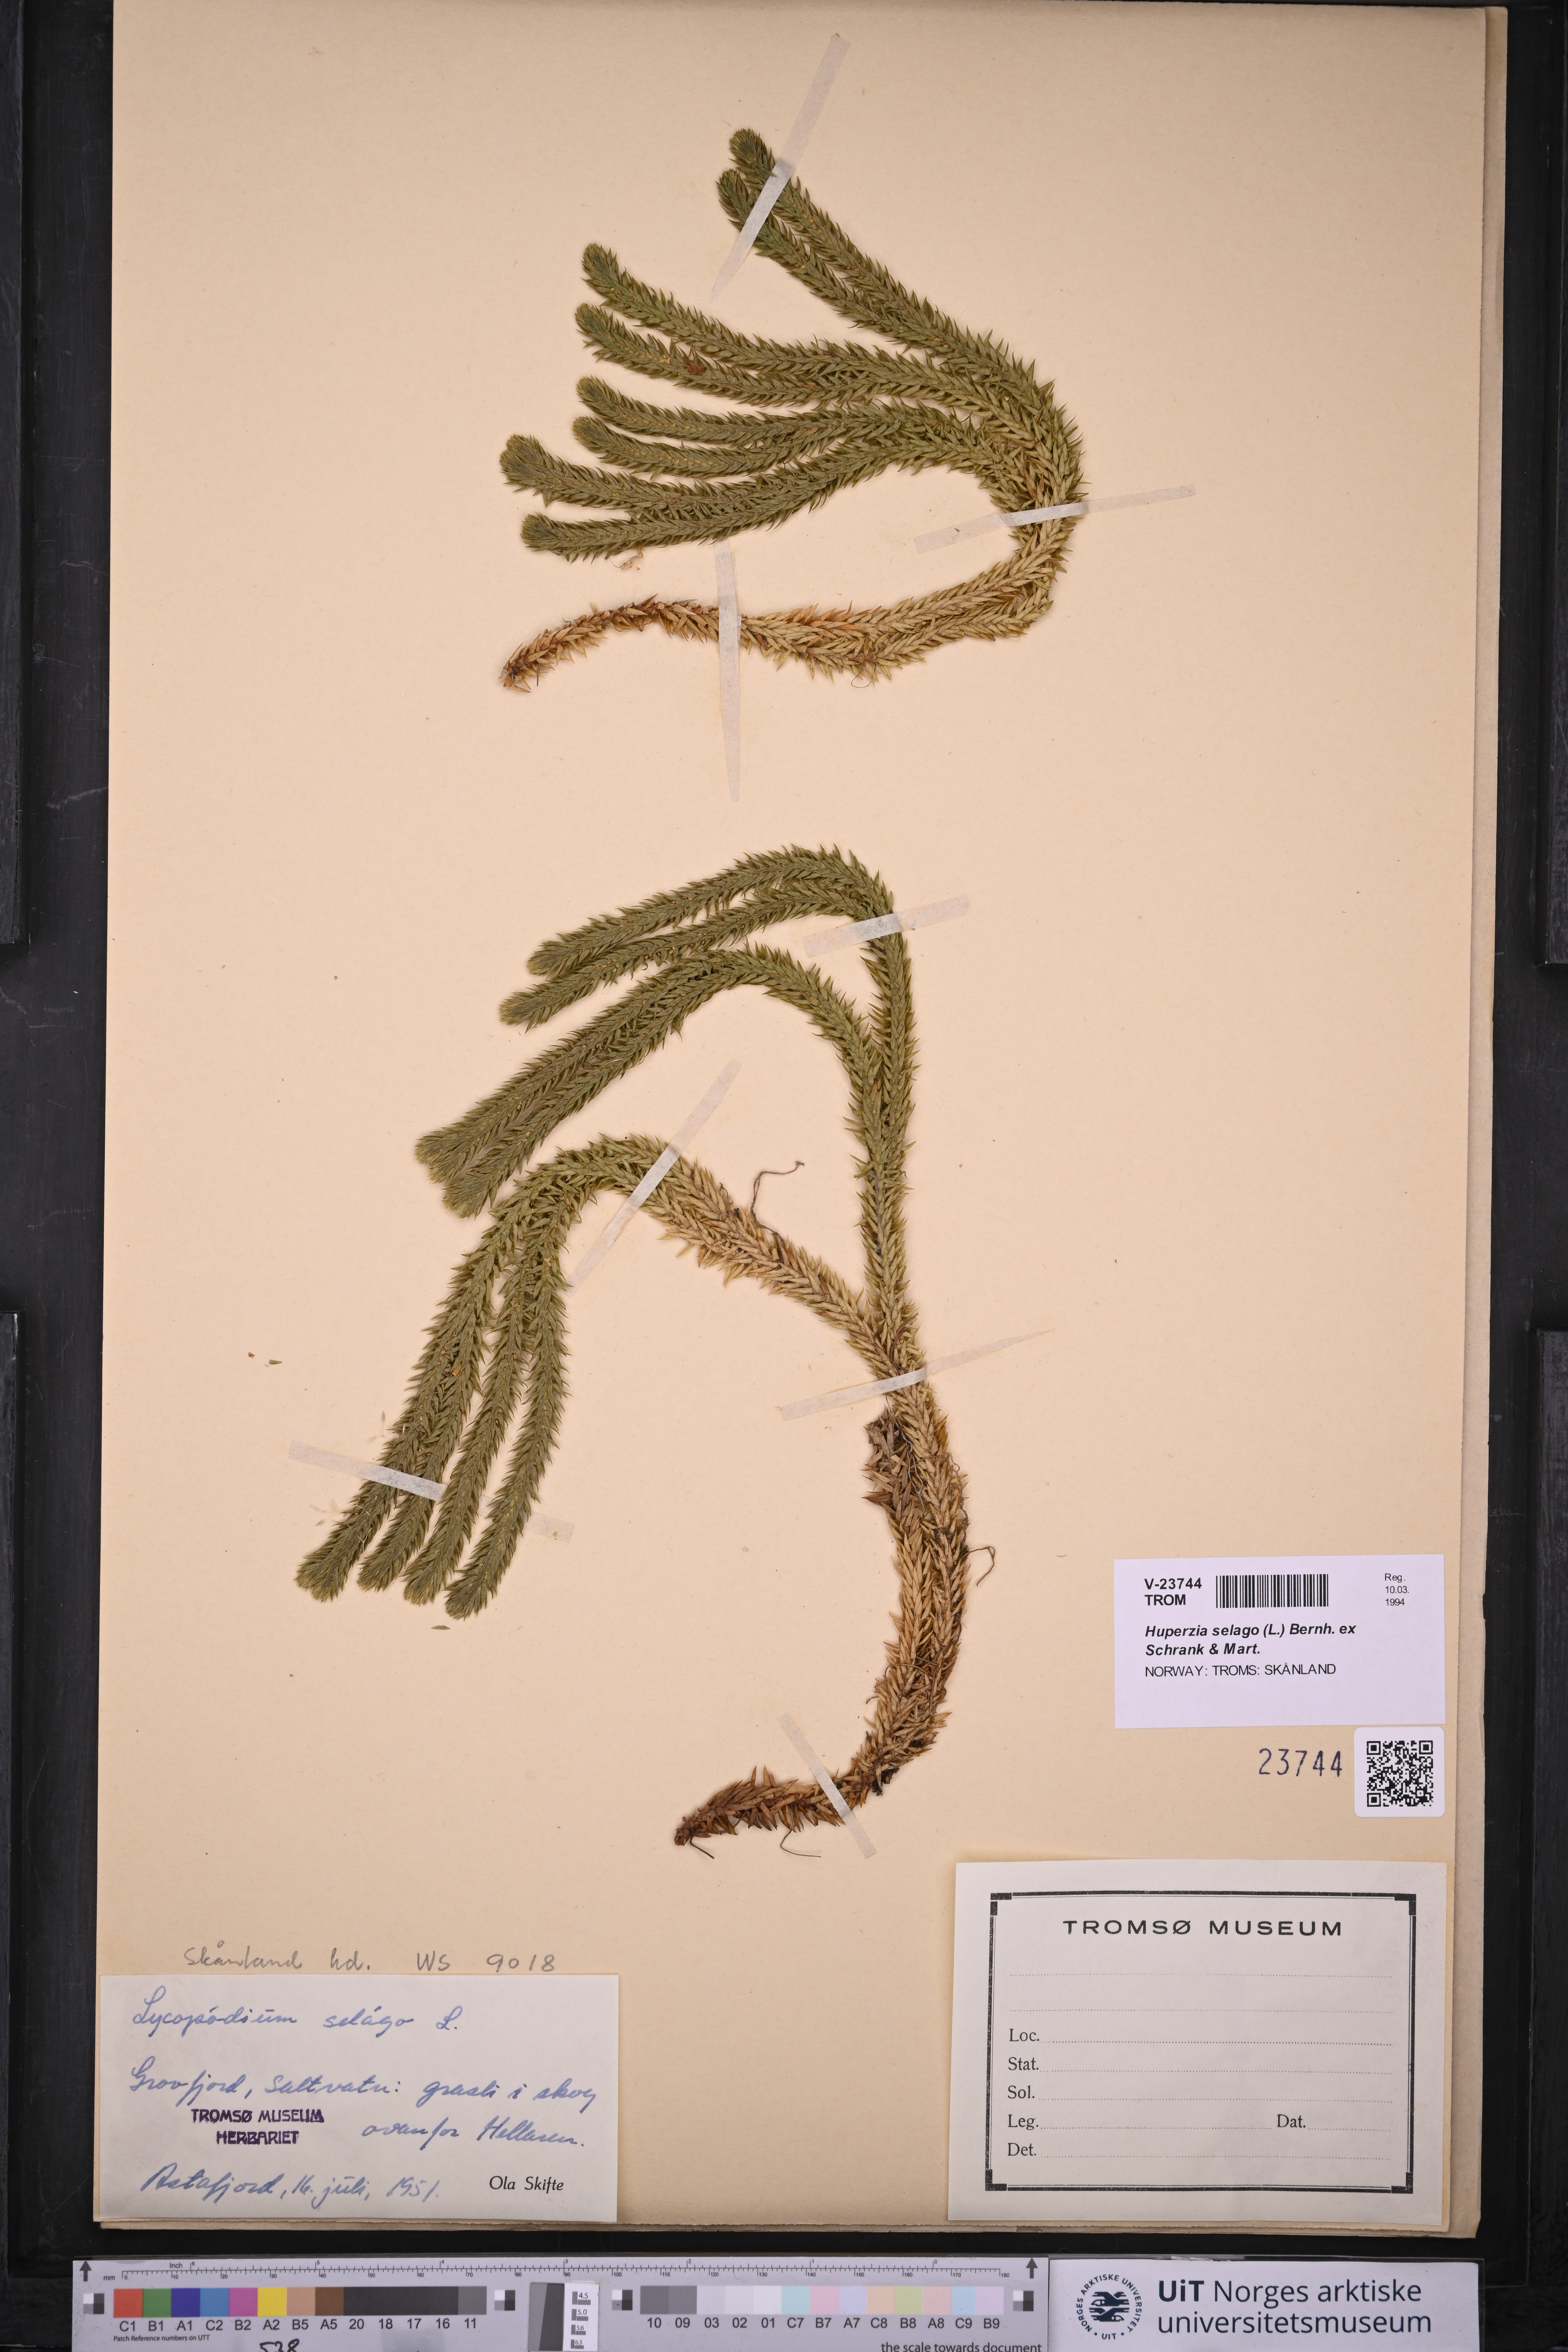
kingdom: Plantae
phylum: Tracheophyta
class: Lycopodiopsida
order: Lycopodiales
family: Lycopodiaceae
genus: Huperzia
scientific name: Huperzia selago
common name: Northern firmoss
